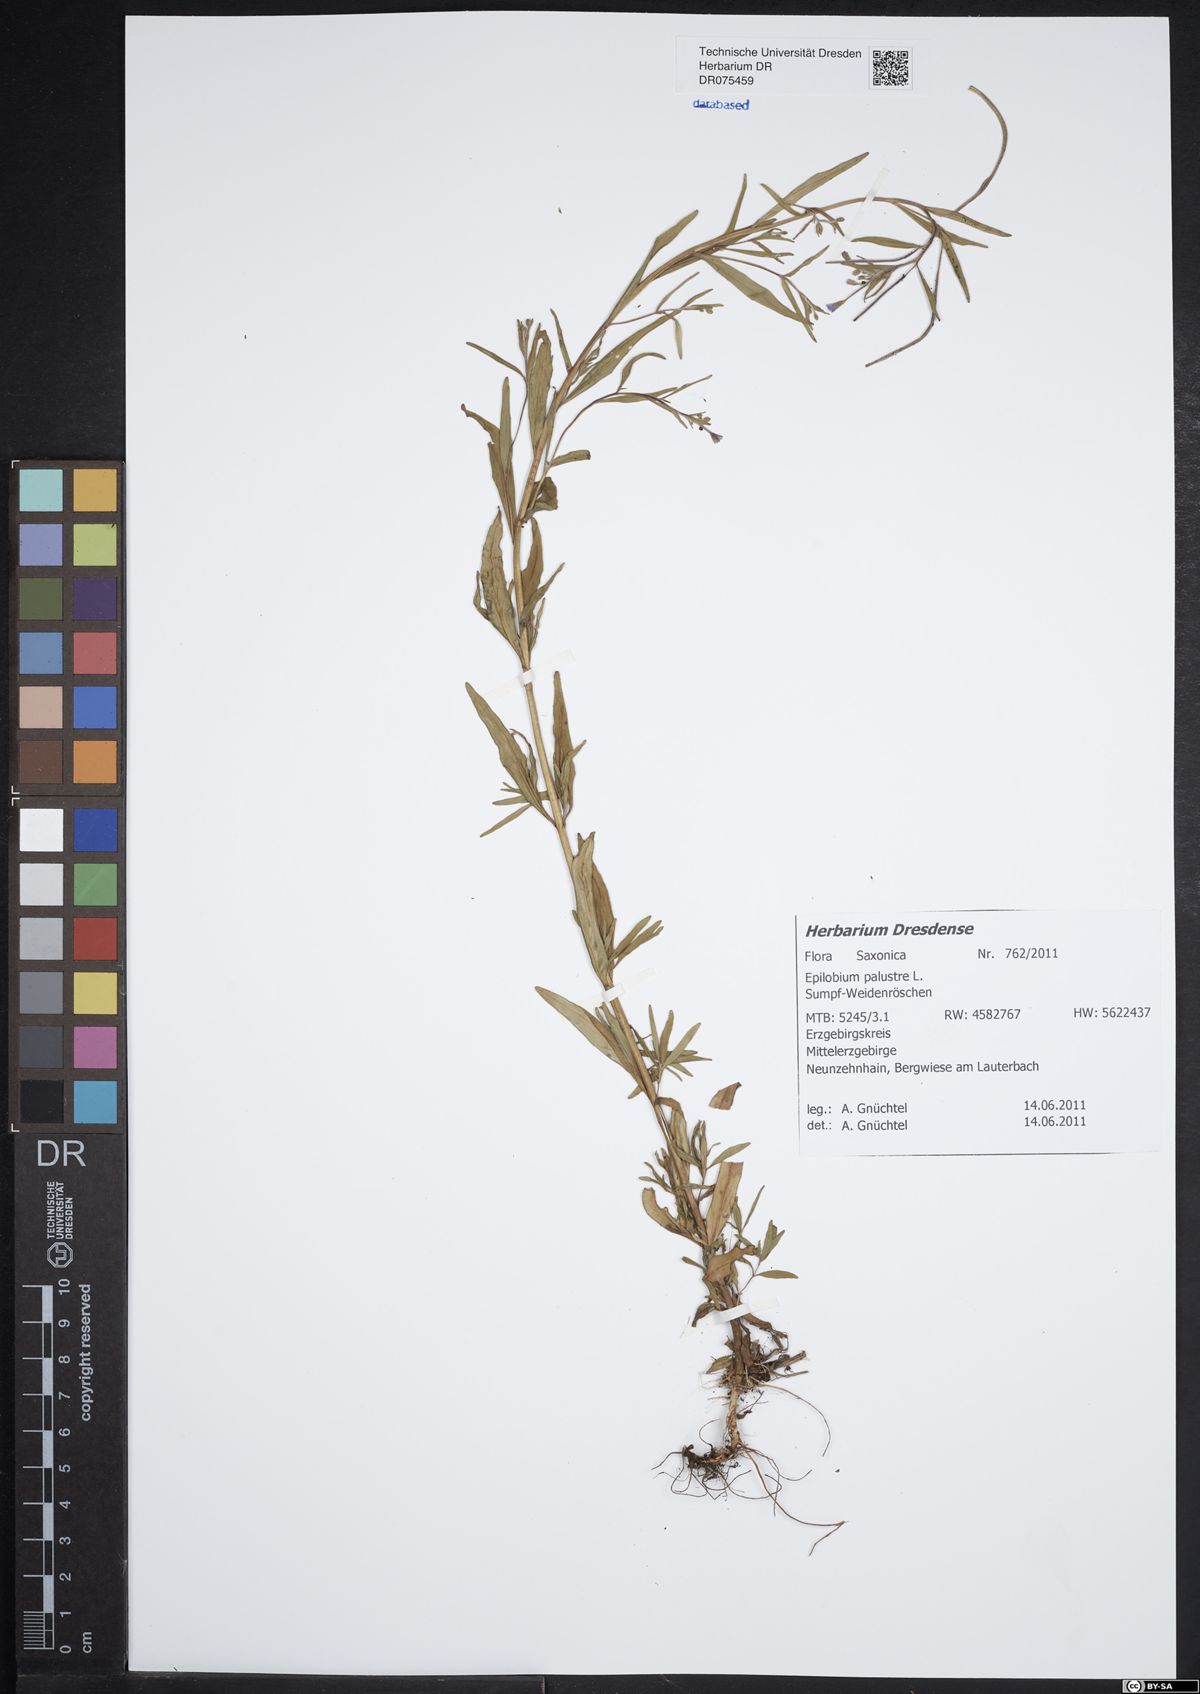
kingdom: Plantae
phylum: Tracheophyta
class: Magnoliopsida
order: Myrtales
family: Onagraceae
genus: Epilobium
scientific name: Epilobium palustre
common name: Marsh willowherb
